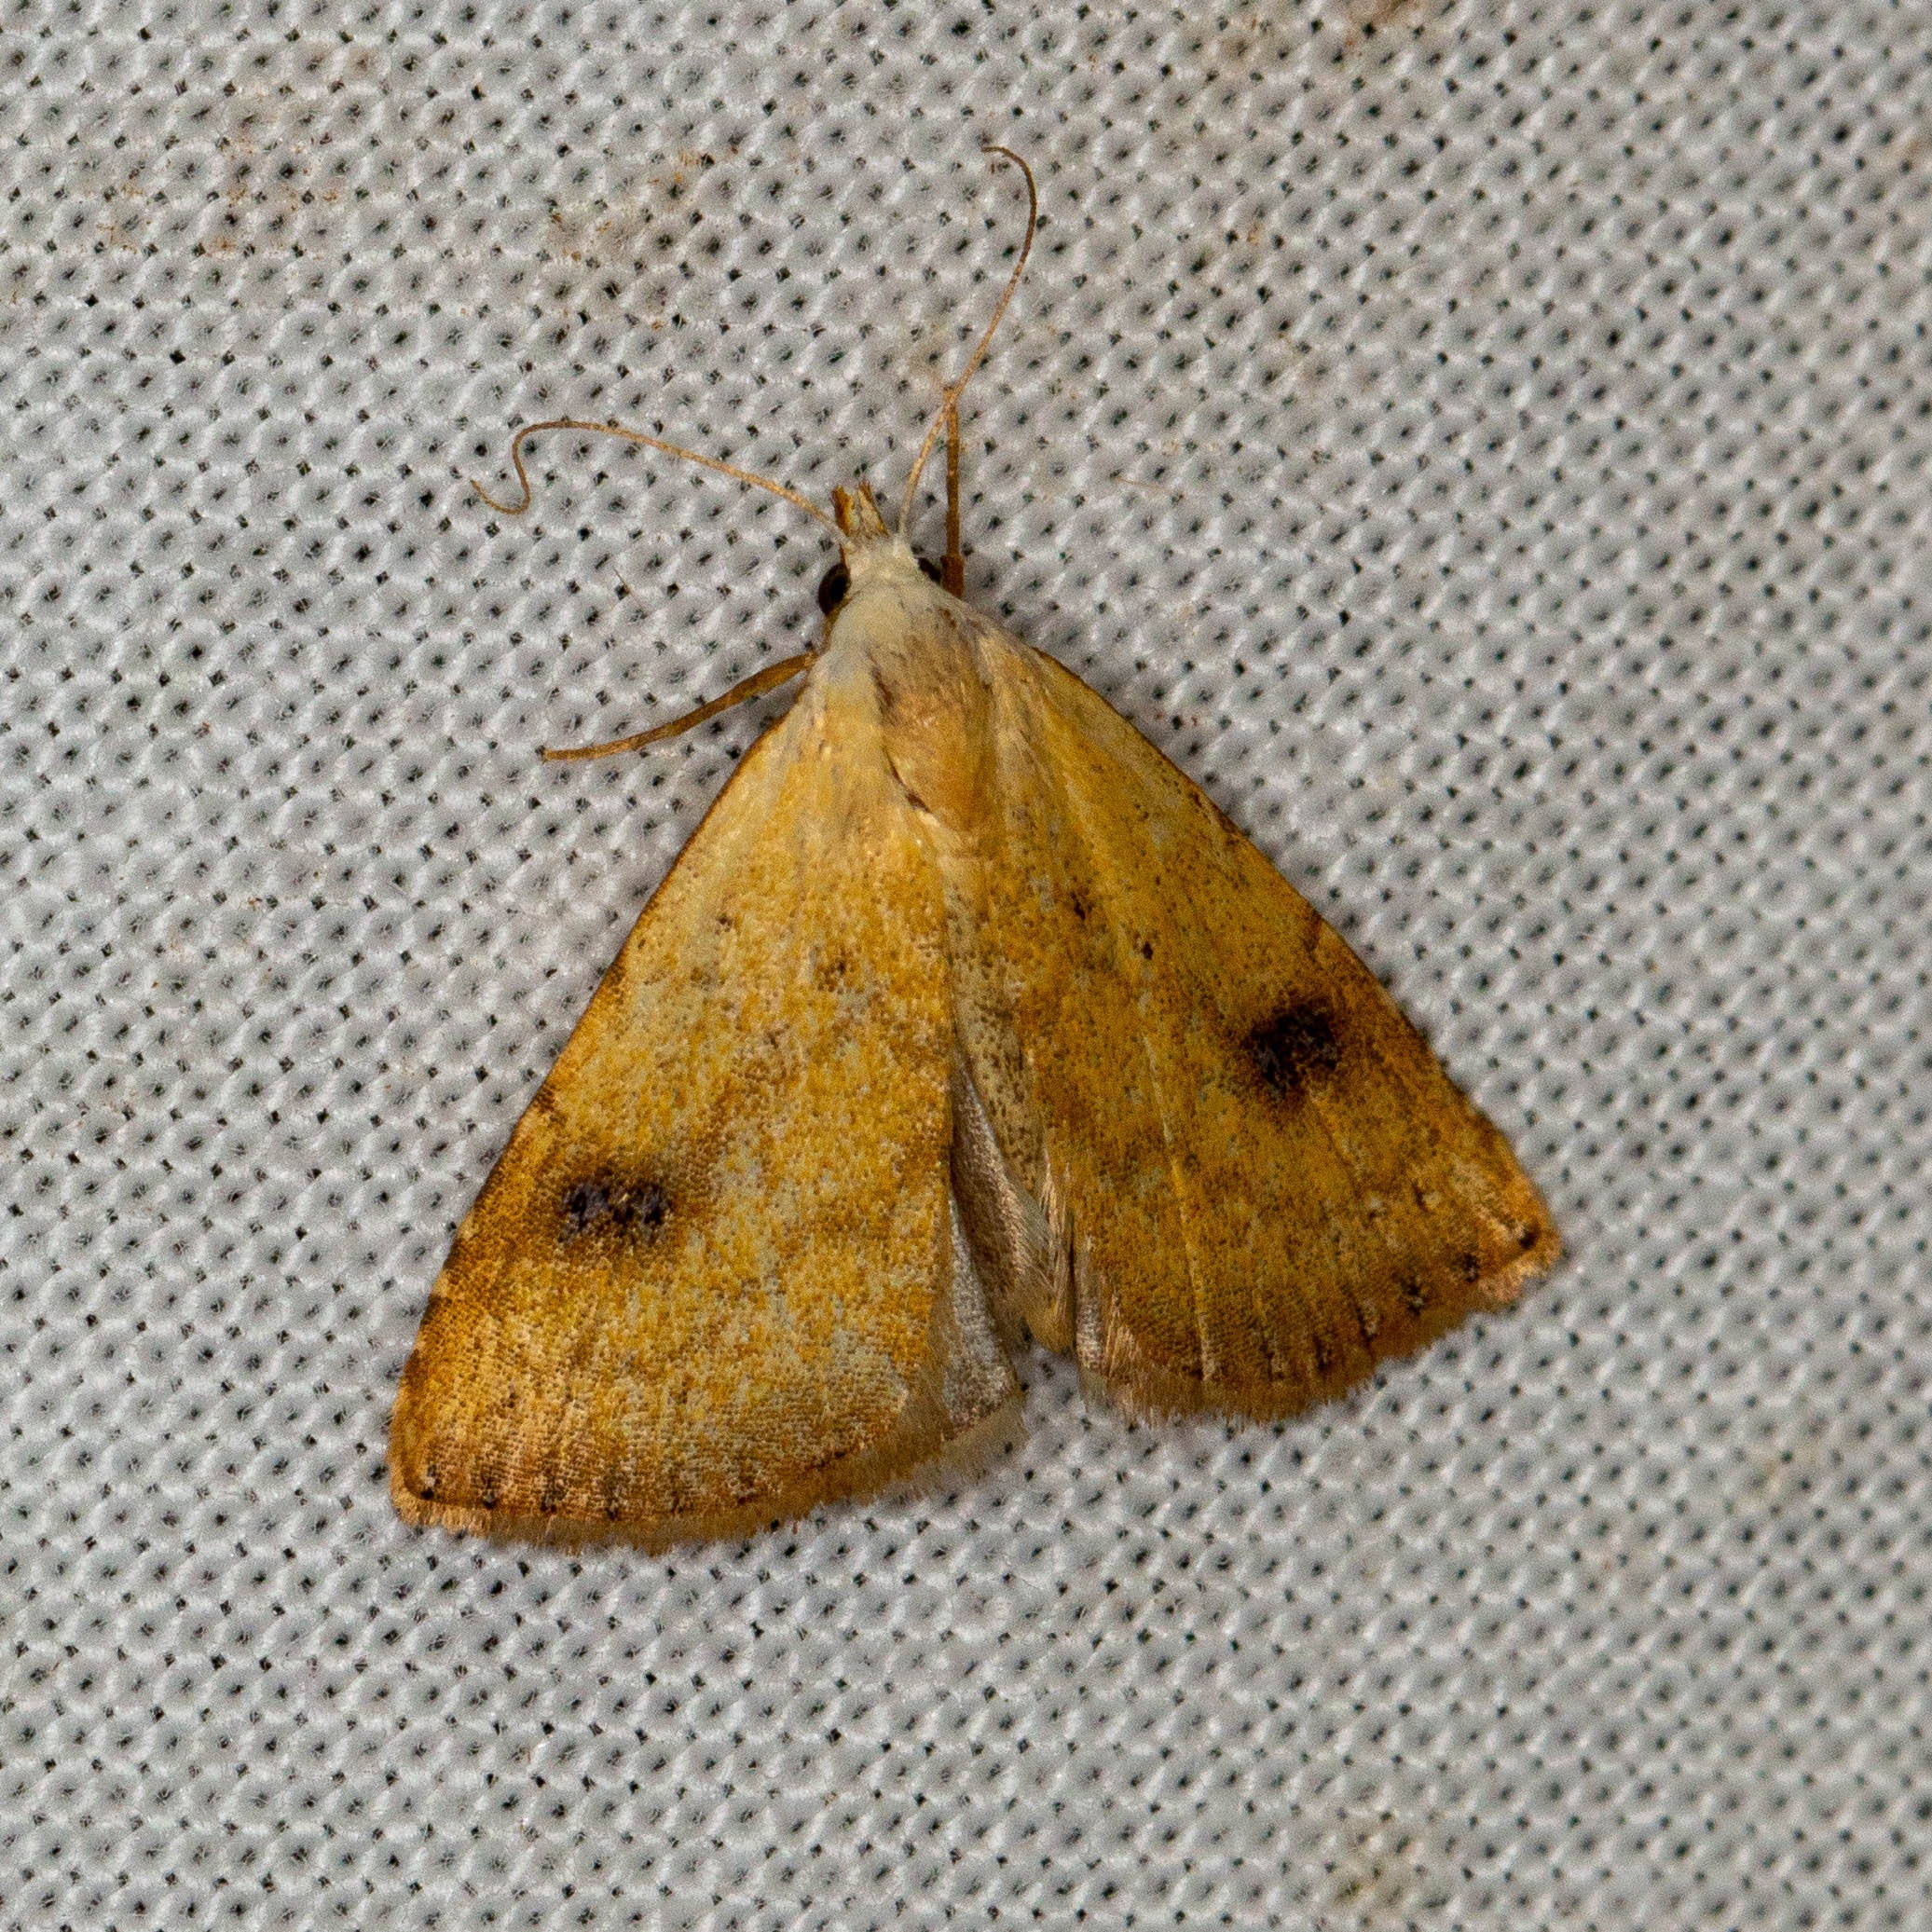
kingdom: Animalia
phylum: Arthropoda
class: Insecta
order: Lepidoptera
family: Erebidae
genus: Rivula
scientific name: Rivula sericealis
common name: Lille å-ugle
